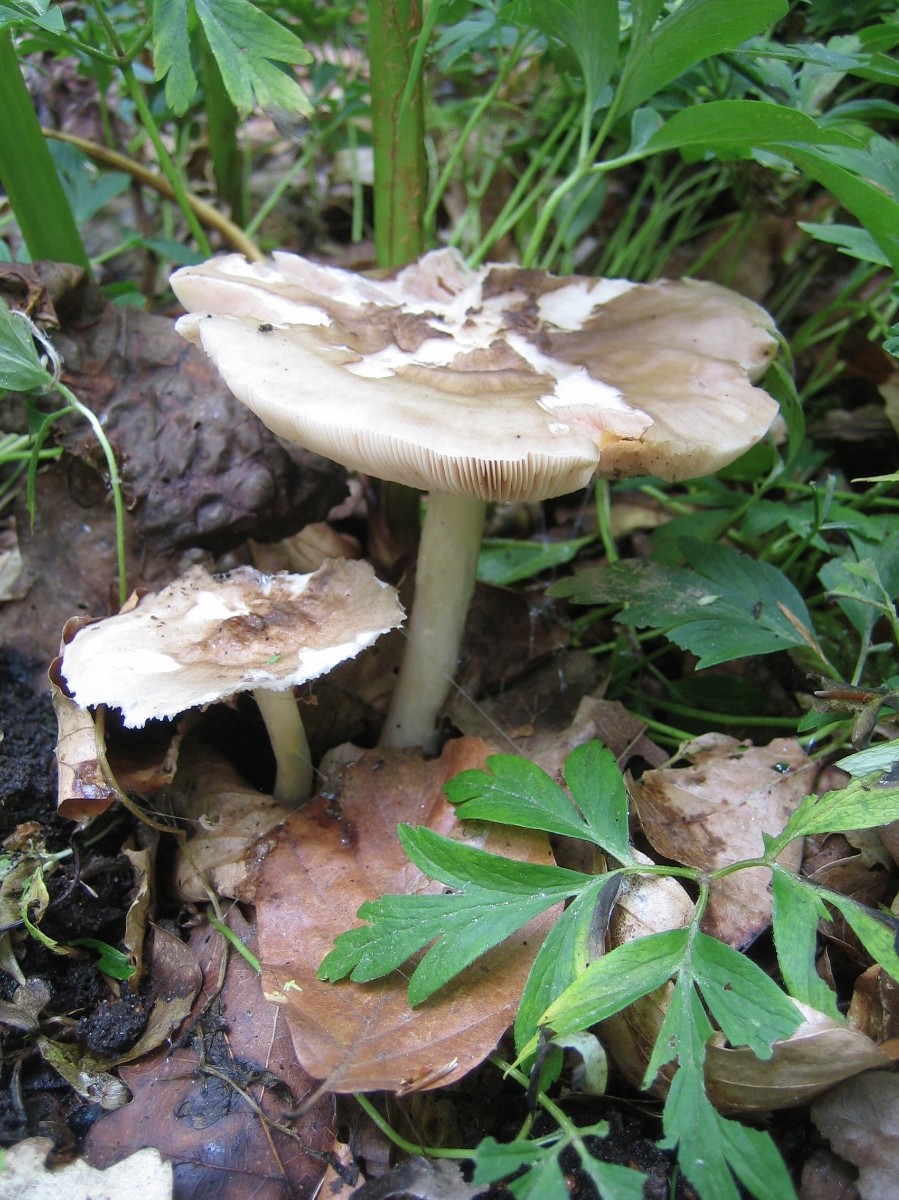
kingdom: Fungi
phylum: Basidiomycota
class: Agaricomycetes
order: Agaricales
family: Pluteaceae
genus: Pluteus
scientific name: Pluteus cervinus
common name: sodfarvet skærmhat
